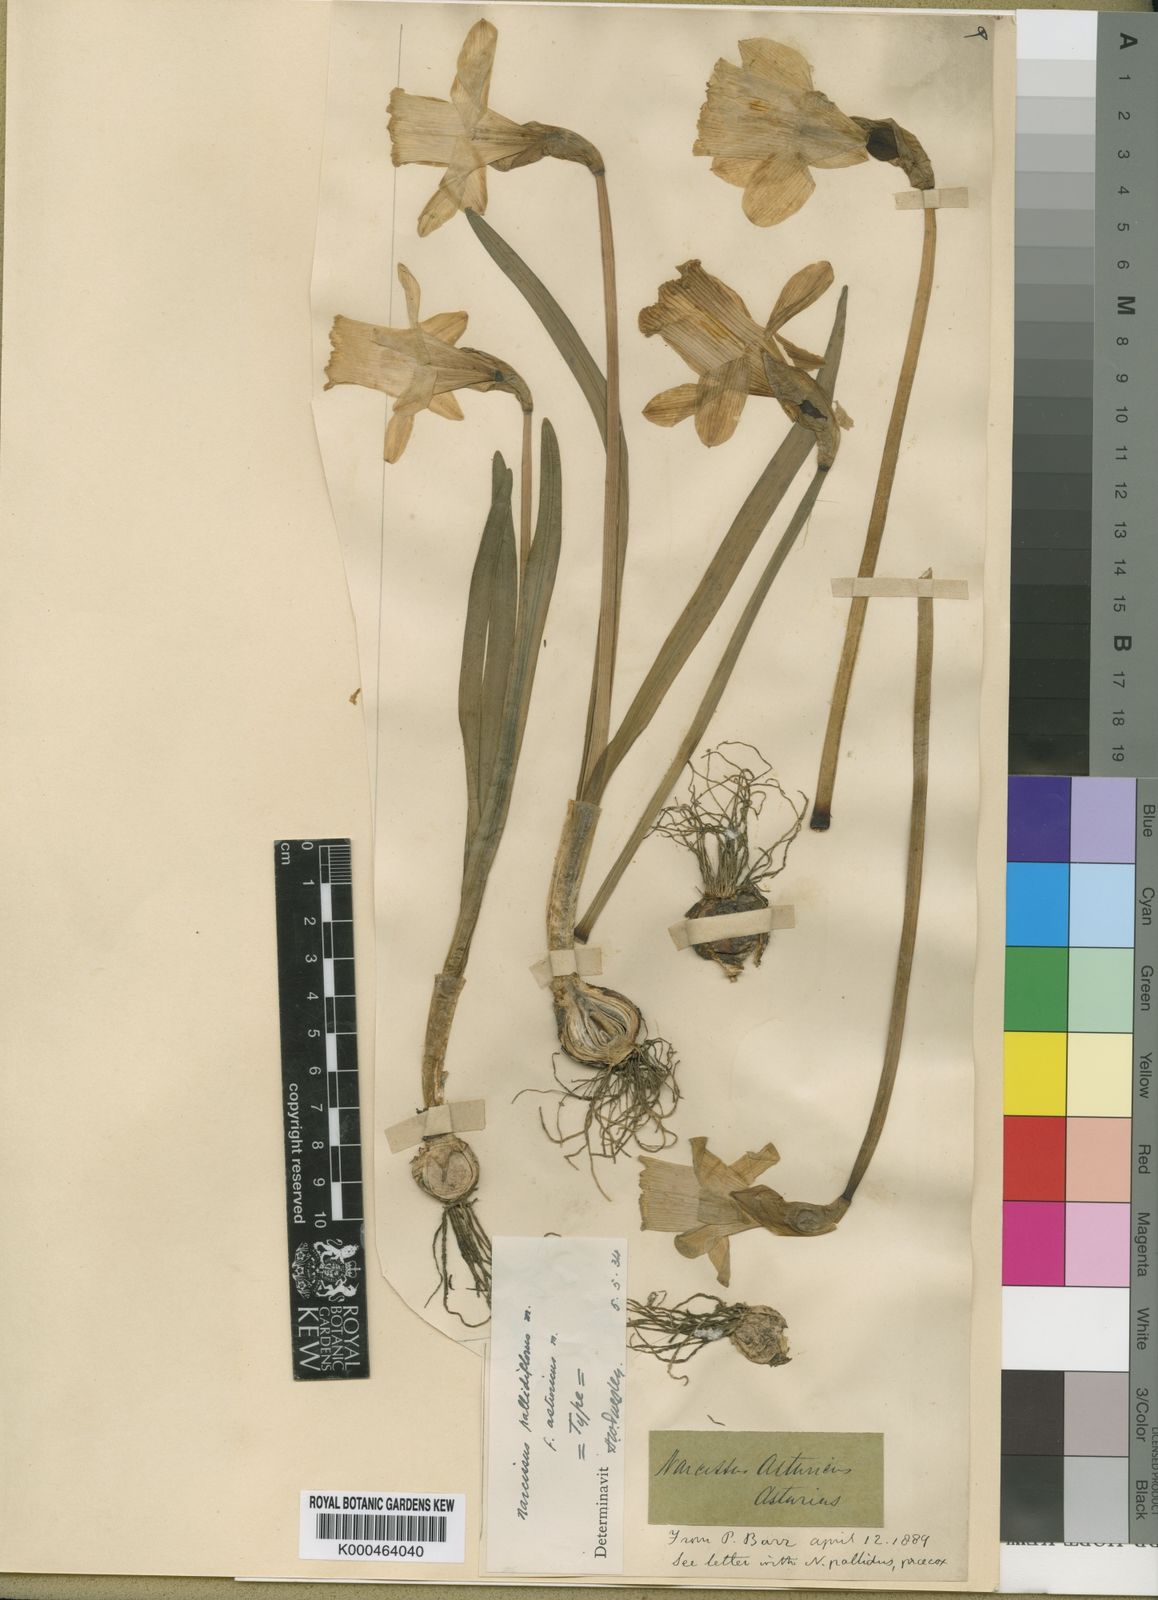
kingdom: Plantae
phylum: Tracheophyta
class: Liliopsida
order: Asparagales
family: Amaryllidaceae
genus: Narcissus
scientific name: Narcissus pallidiflorus
